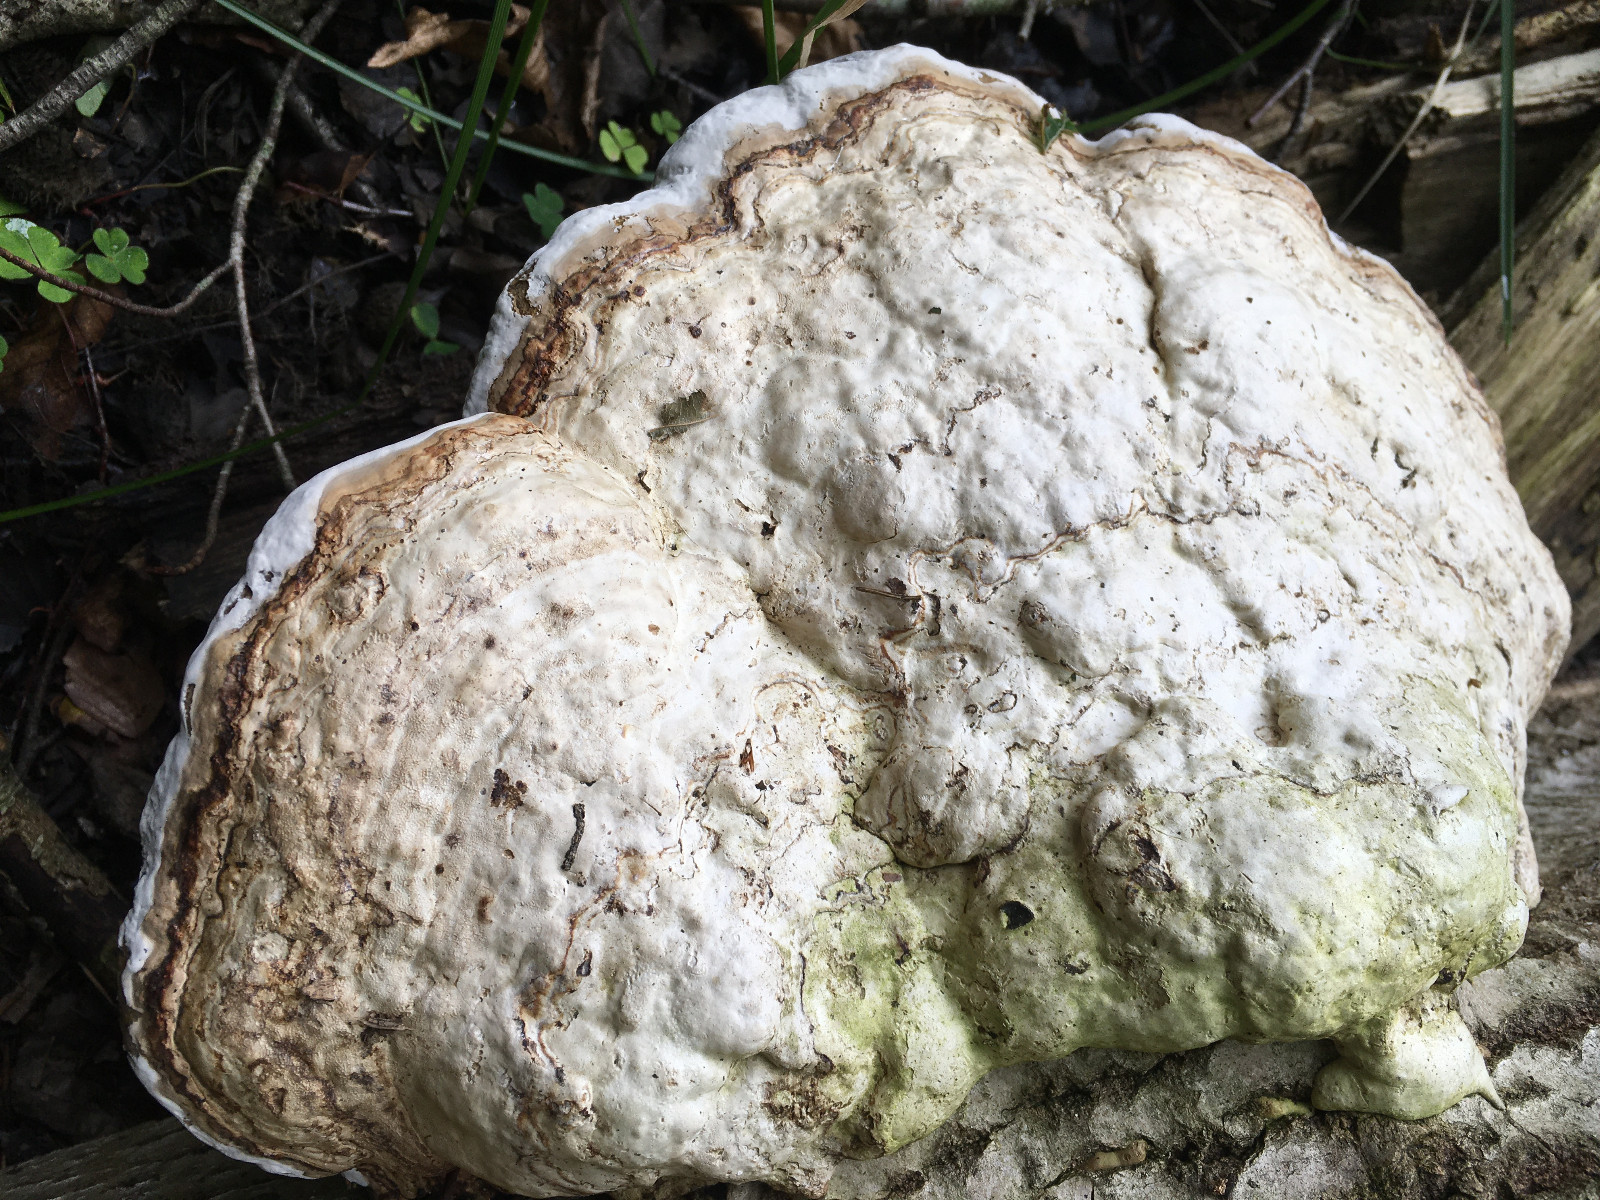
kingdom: Fungi
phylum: Basidiomycota
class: Agaricomycetes
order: Polyporales
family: Polyporaceae
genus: Fomes
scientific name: Fomes fomentarius
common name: tøndersvamp
